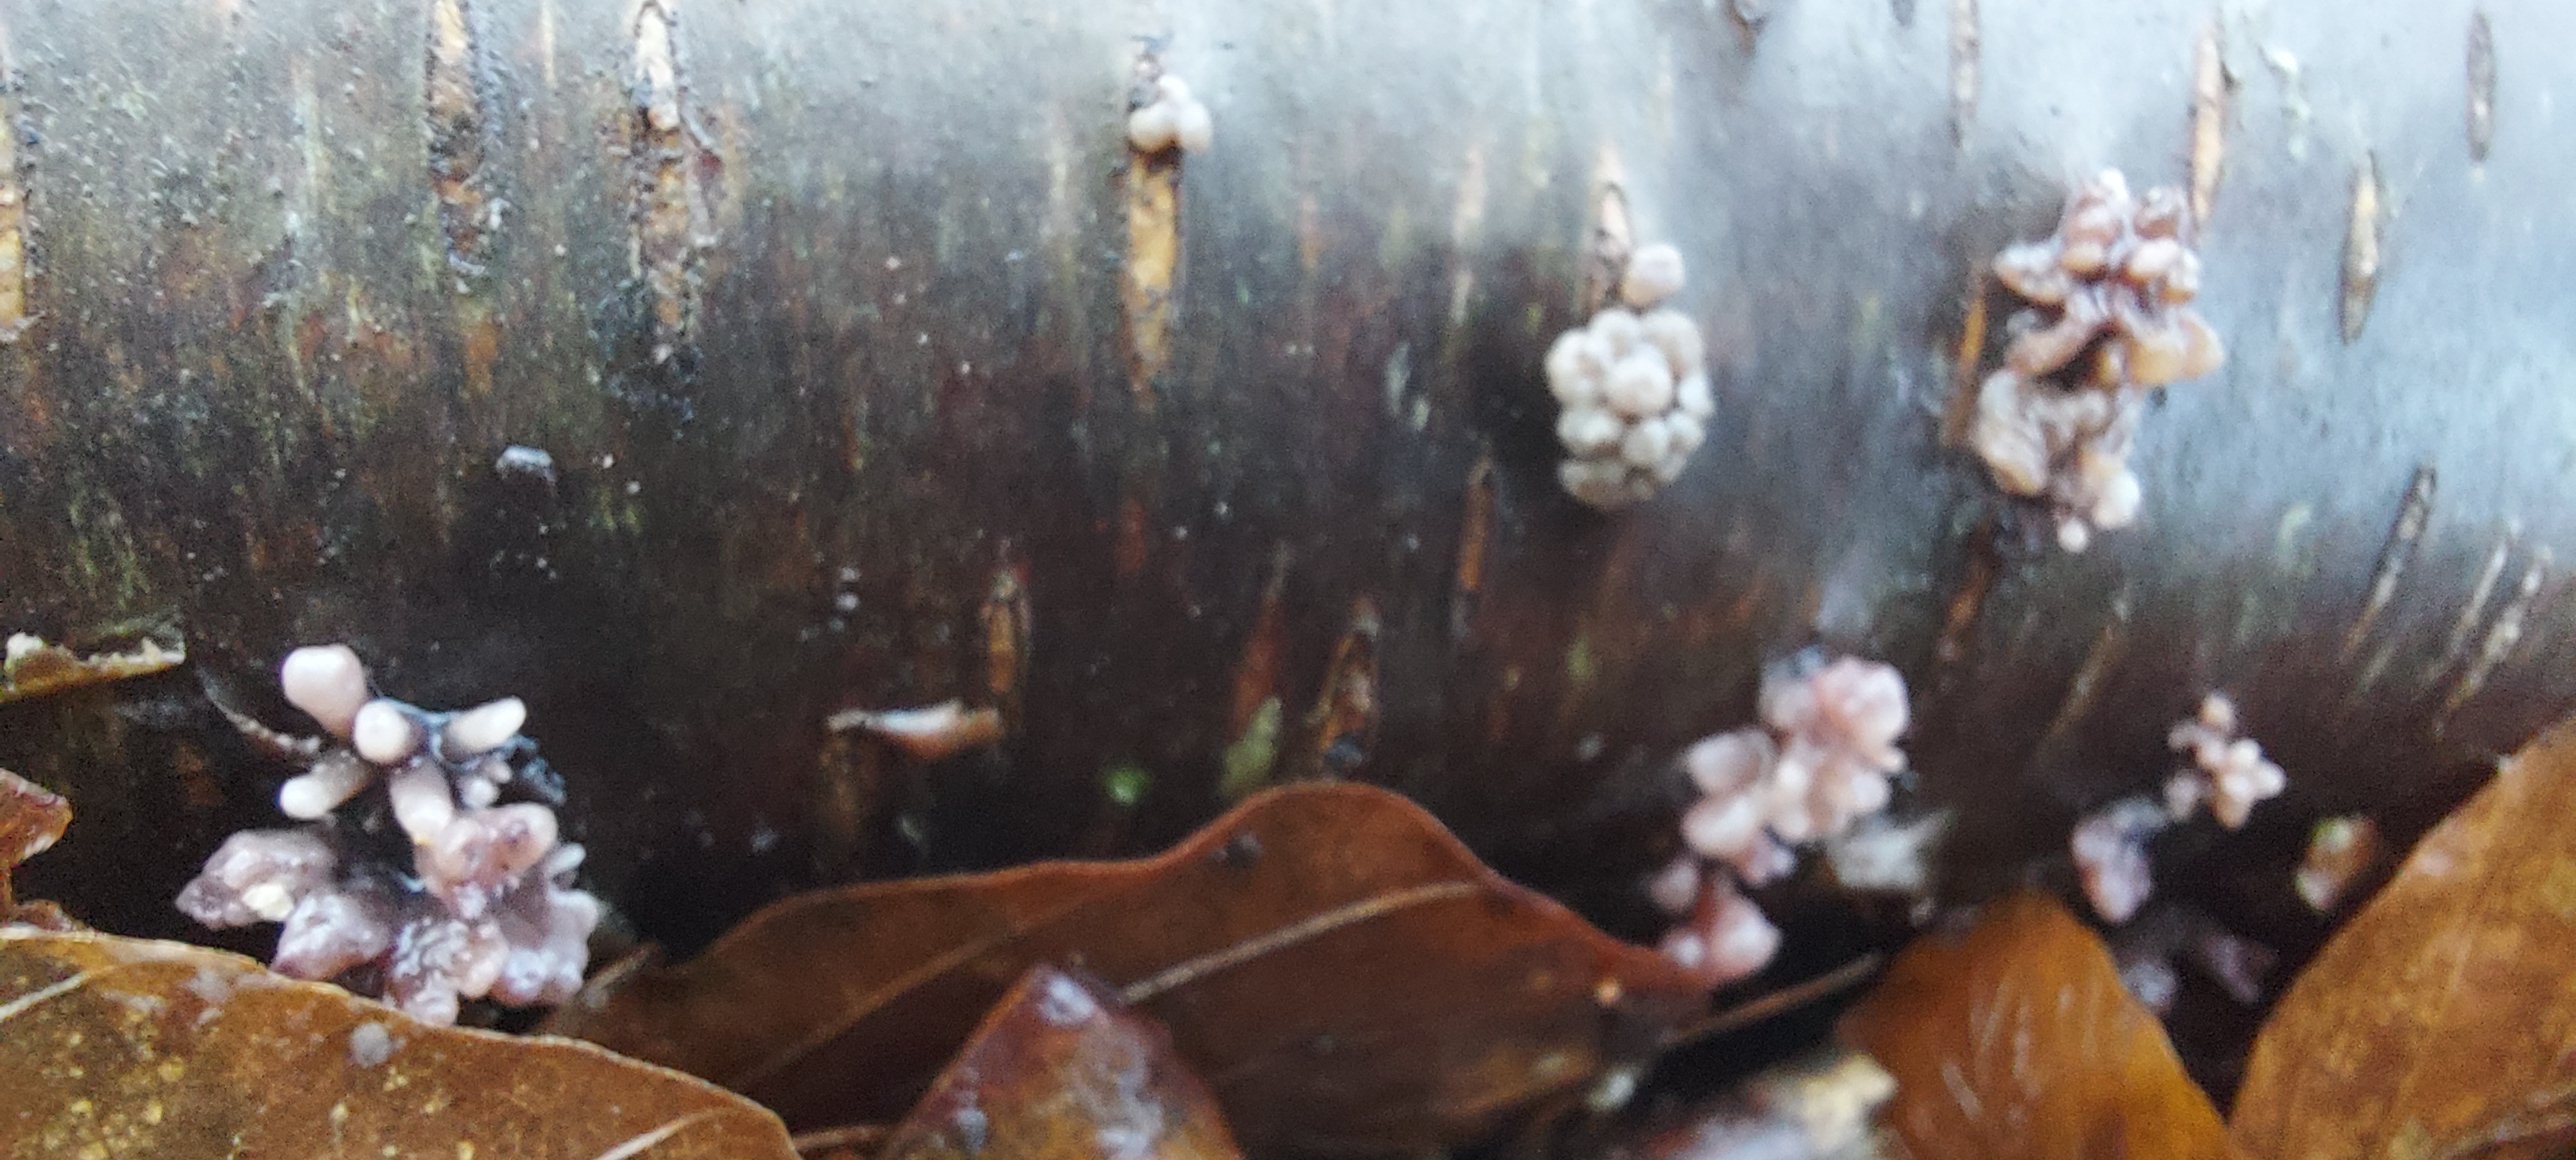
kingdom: Fungi
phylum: Ascomycota
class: Leotiomycetes
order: Helotiales
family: Gelatinodiscaceae
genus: Ascocoryne
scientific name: Ascocoryne
